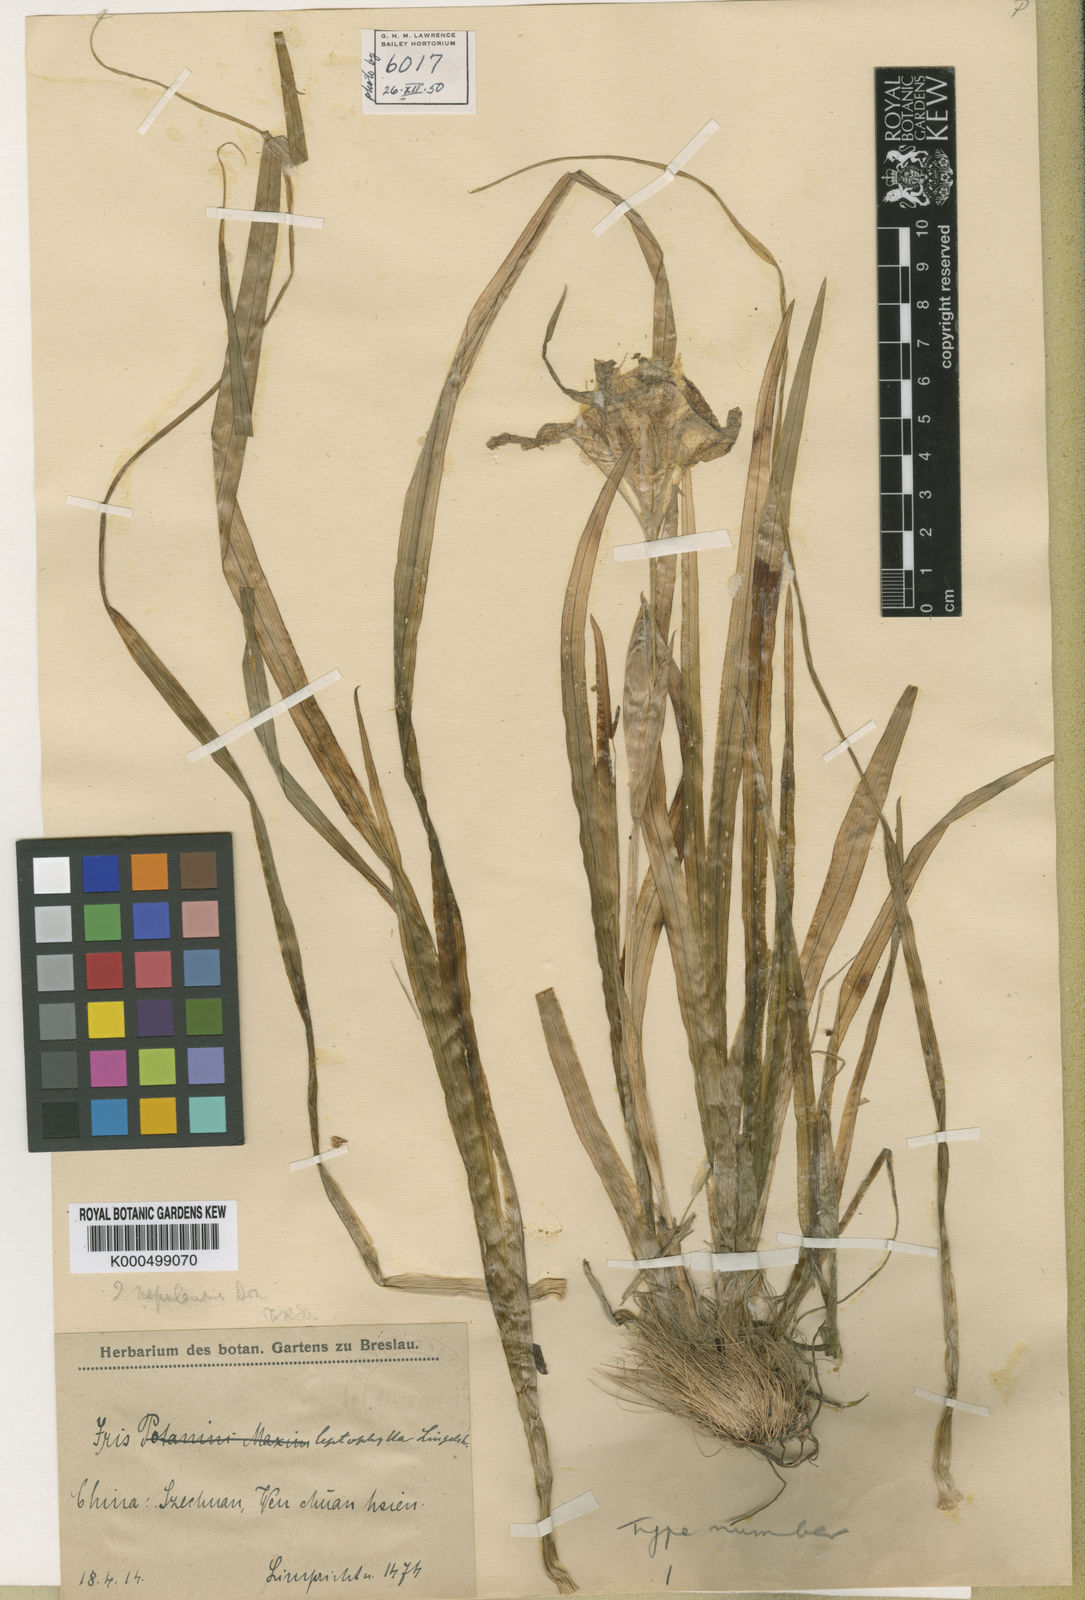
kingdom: Plantae
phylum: Tracheophyta
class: Liliopsida
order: Asparagales
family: Iridaceae
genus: Iris
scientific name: Iris
